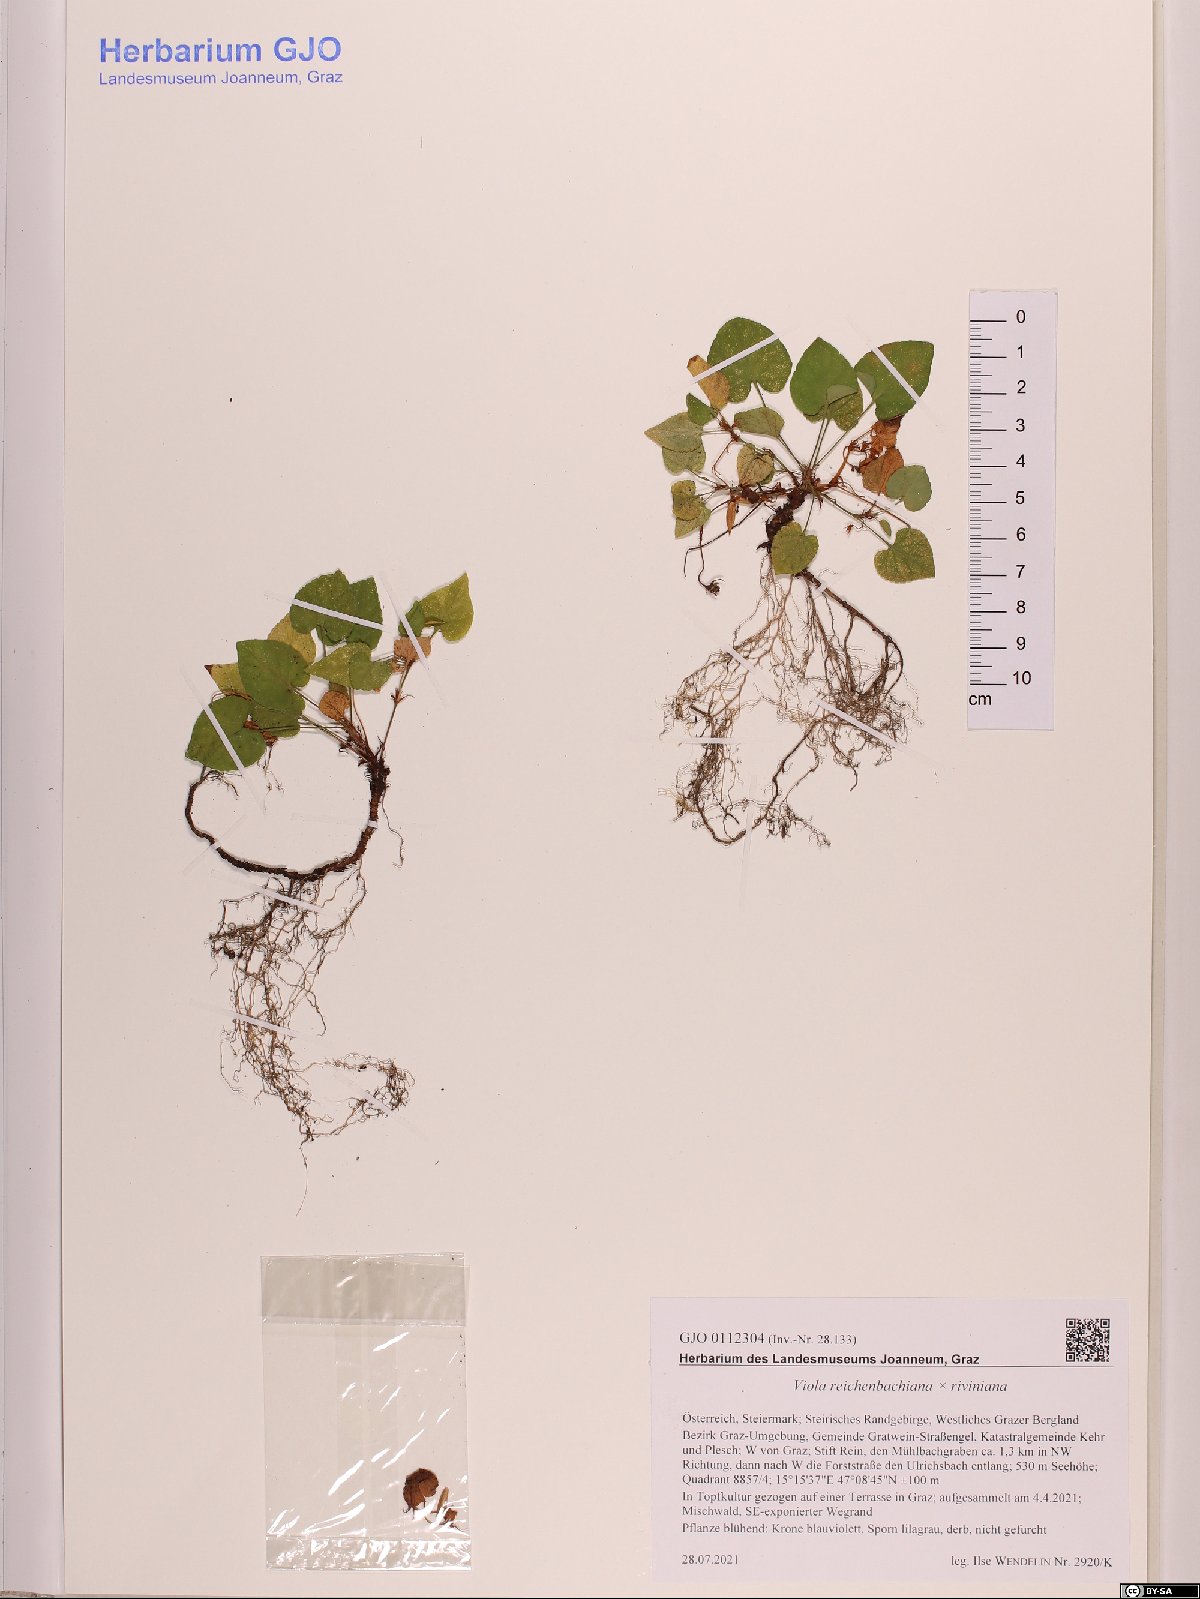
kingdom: Plantae
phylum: Tracheophyta
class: Magnoliopsida
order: Malpighiales
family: Violaceae
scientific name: Violaceae
